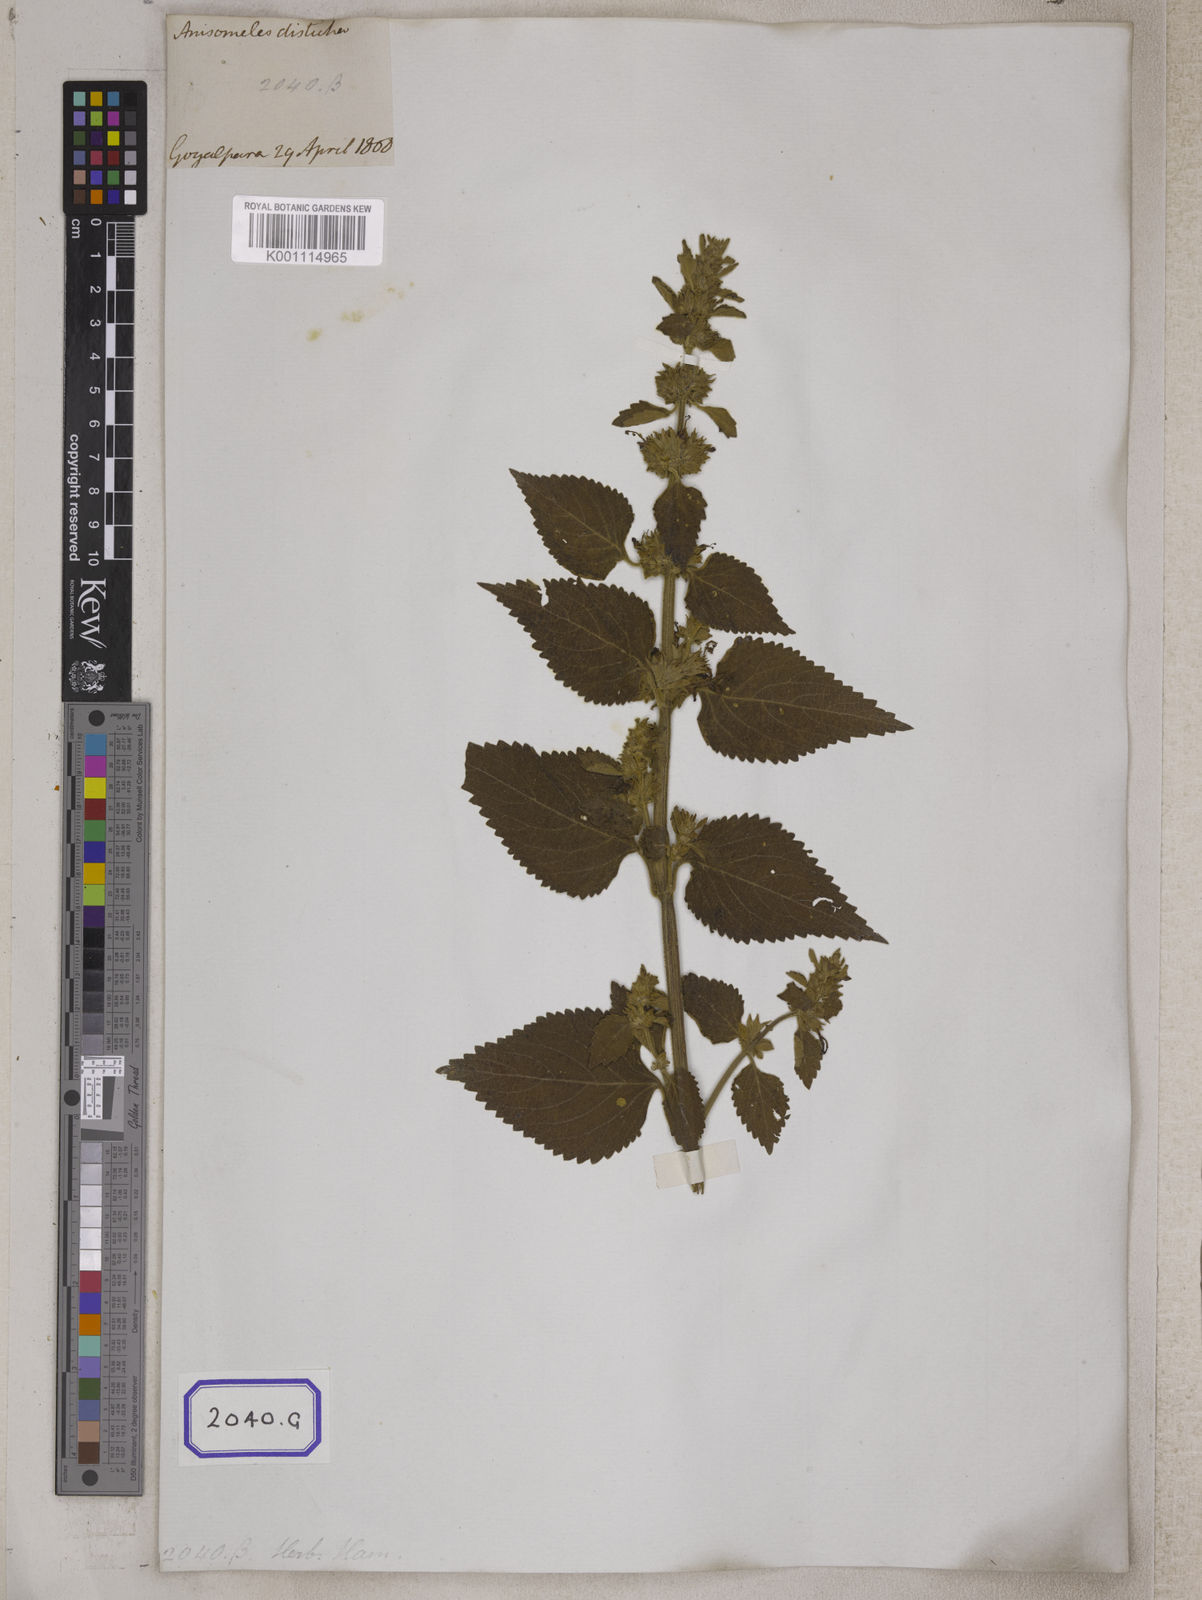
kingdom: Plantae
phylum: Tracheophyta
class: Magnoliopsida
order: Lamiales
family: Lamiaceae
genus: Anisomeles
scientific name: Anisomeles
